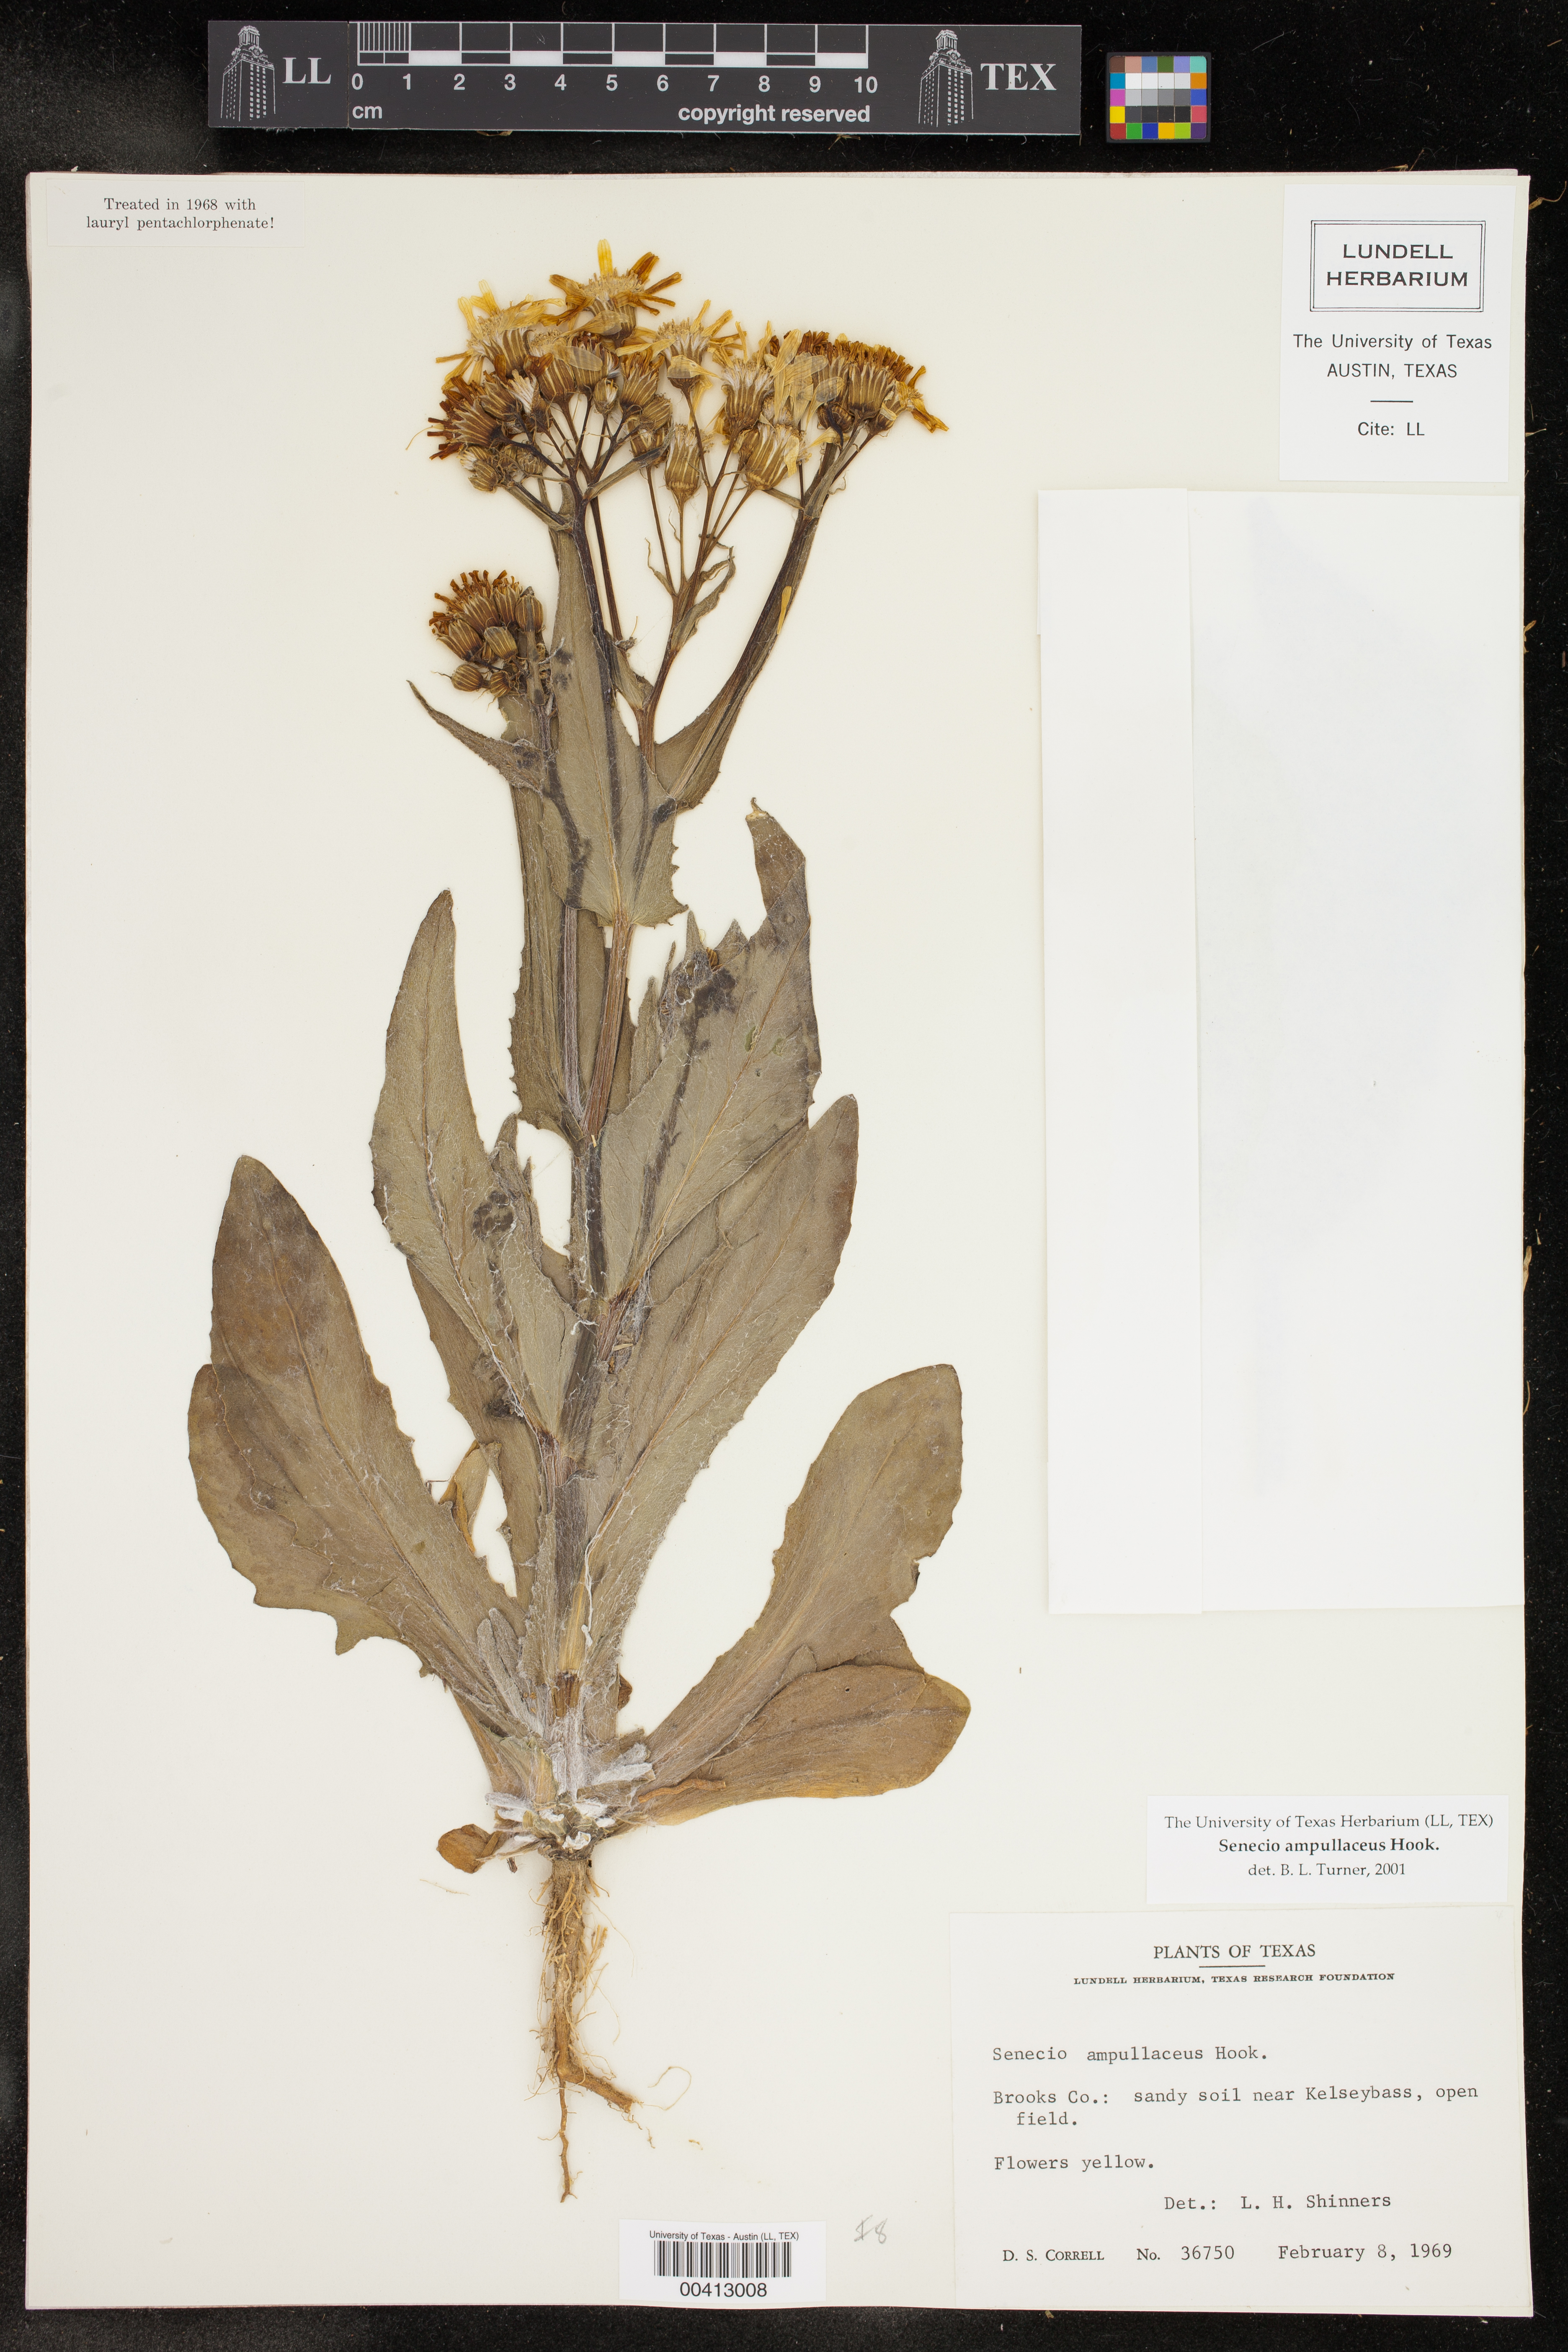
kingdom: Plantae
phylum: Tracheophyta
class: Magnoliopsida
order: Asterales
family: Asteraceae
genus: Senecio
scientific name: Senecio ampullaceus
